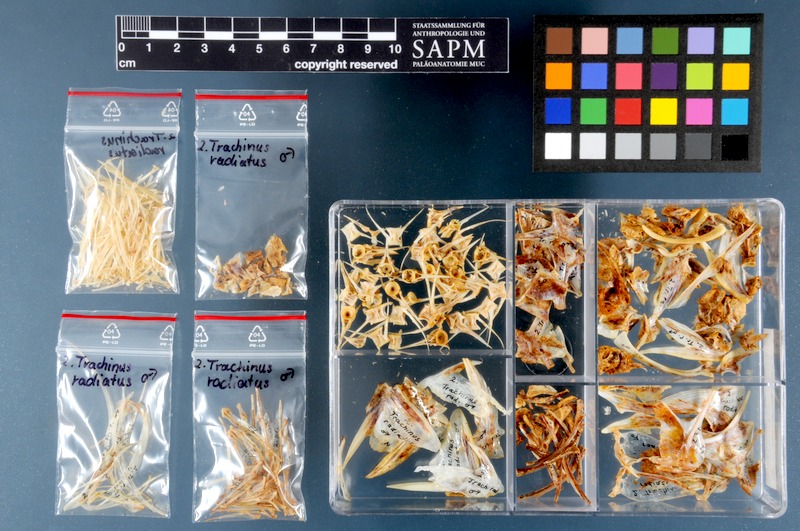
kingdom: Animalia
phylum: Chordata
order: Perciformes
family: Trachinidae
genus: Trachinus
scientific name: Trachinus radiatus
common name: Starry weever
